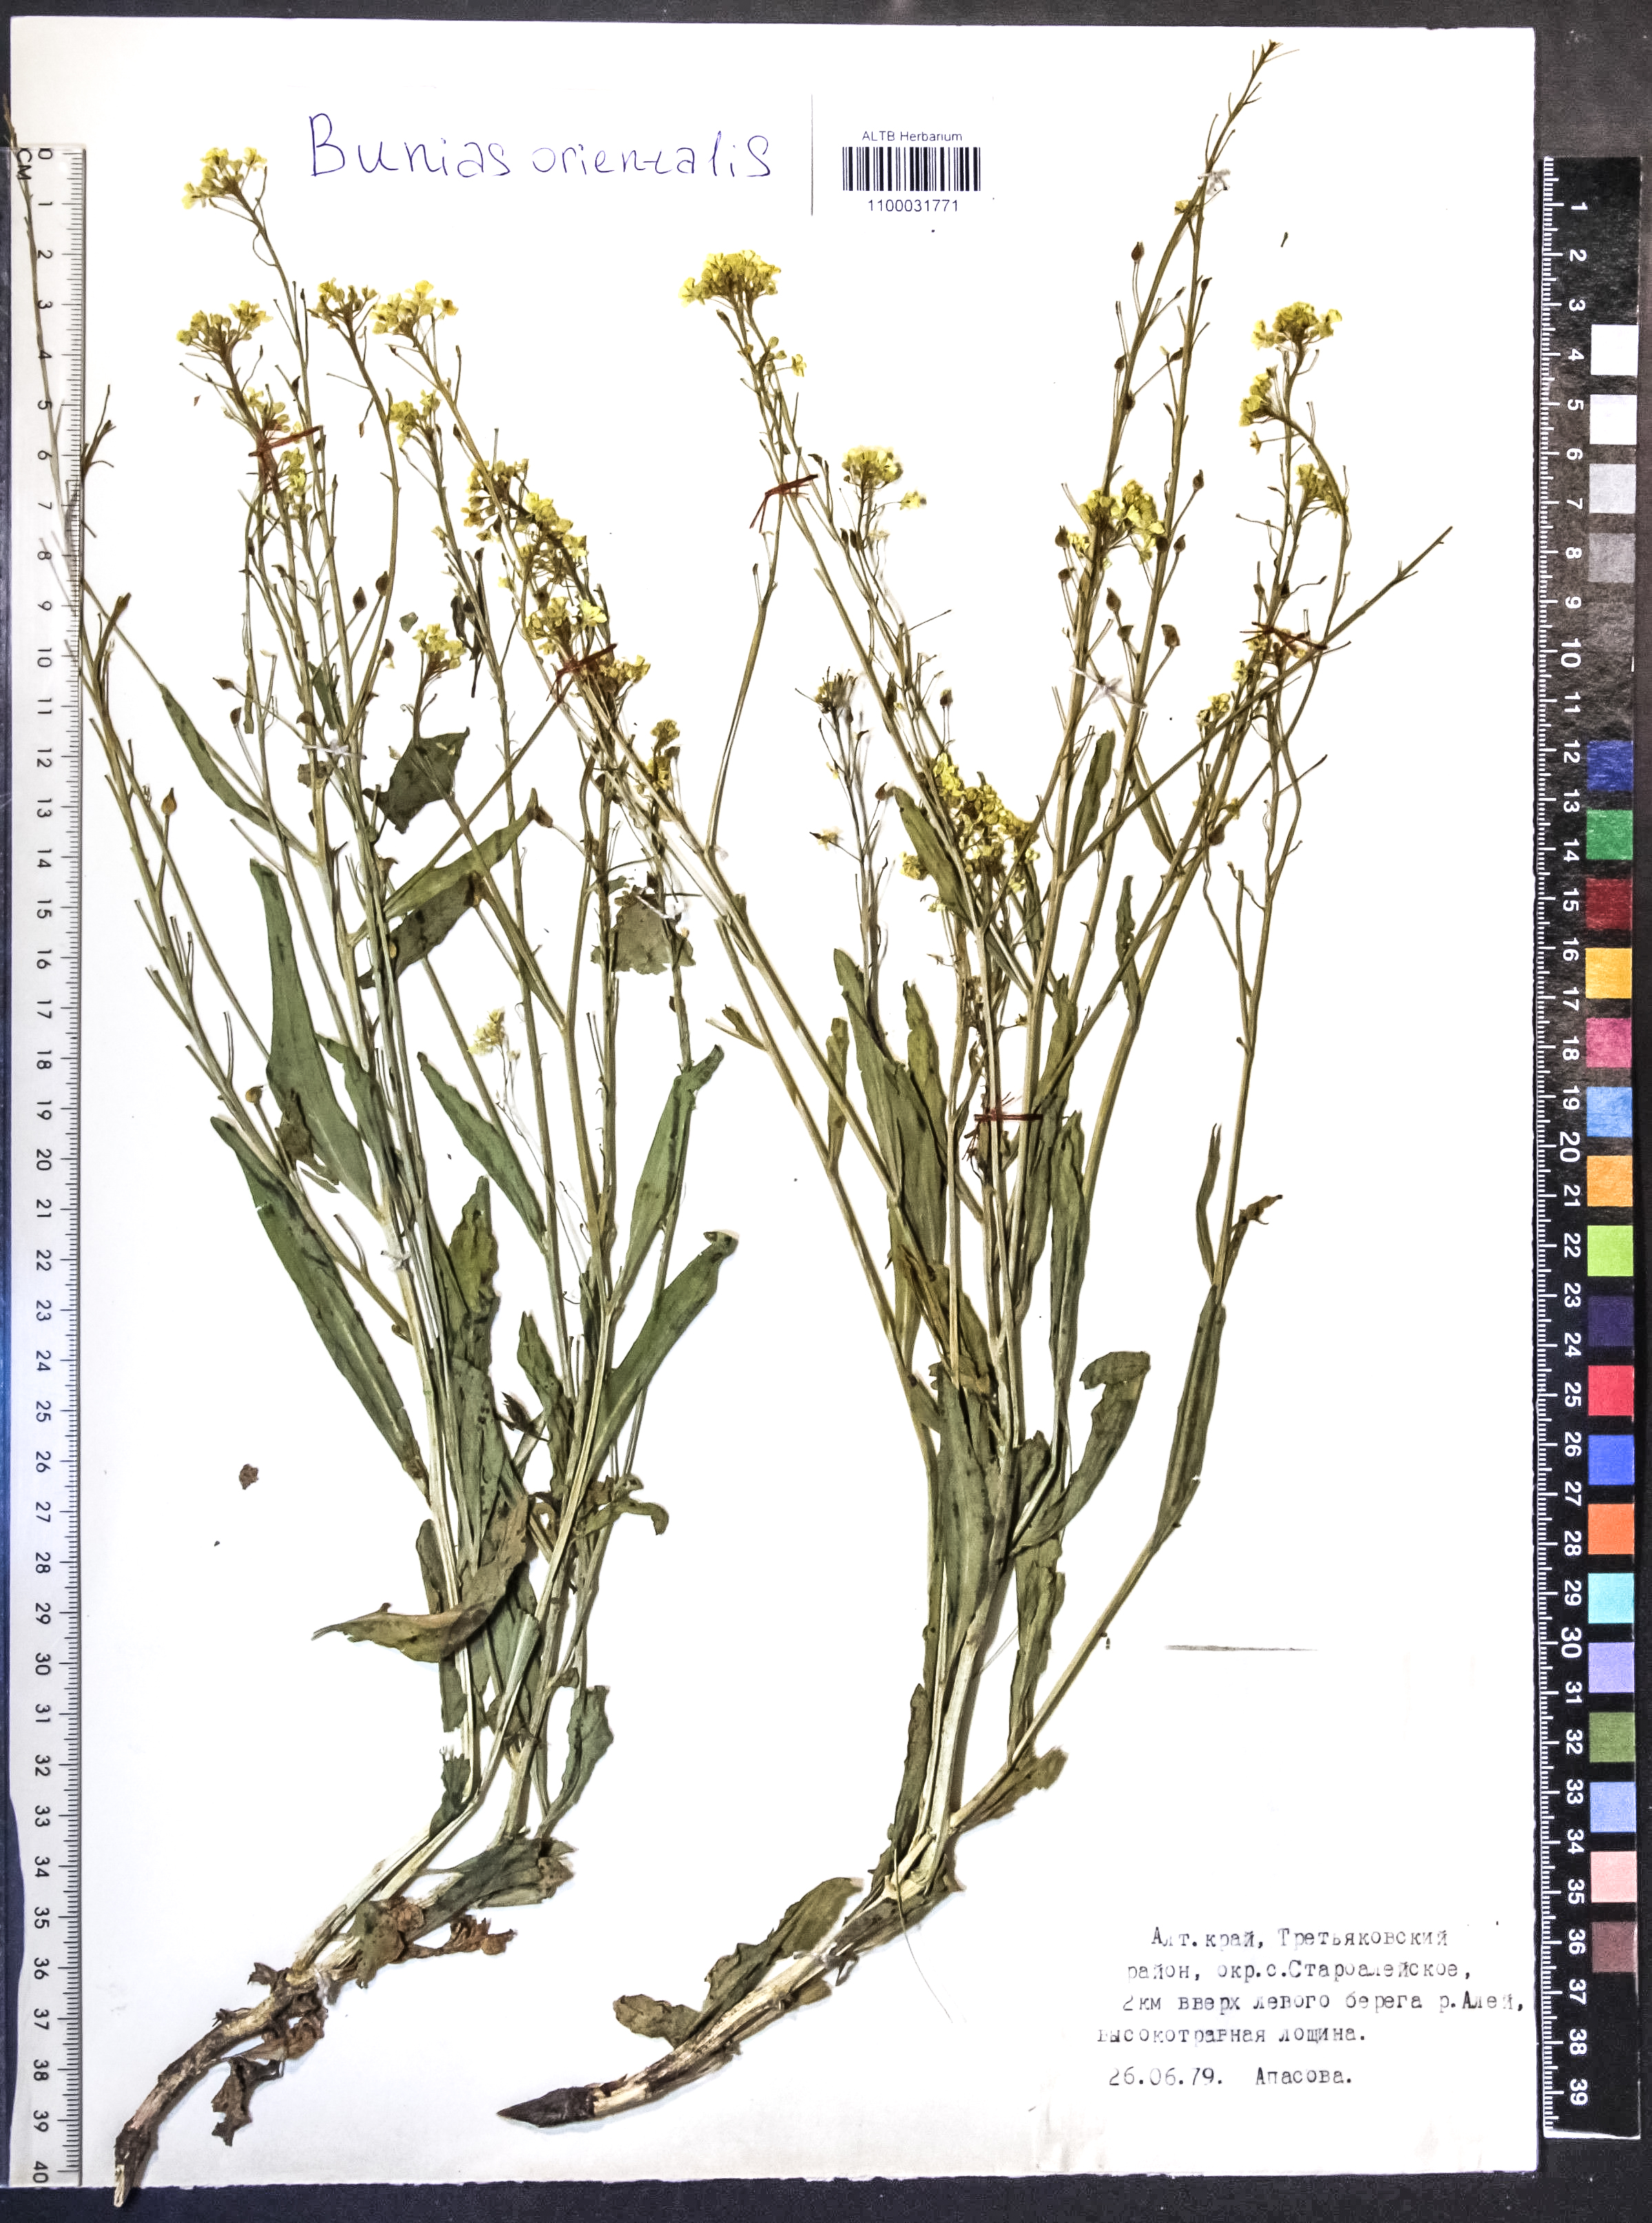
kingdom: Plantae
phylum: Tracheophyta
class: Magnoliopsida
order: Brassicales
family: Brassicaceae
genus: Bunias
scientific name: Bunias orientalis
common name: Warty-cabbage
